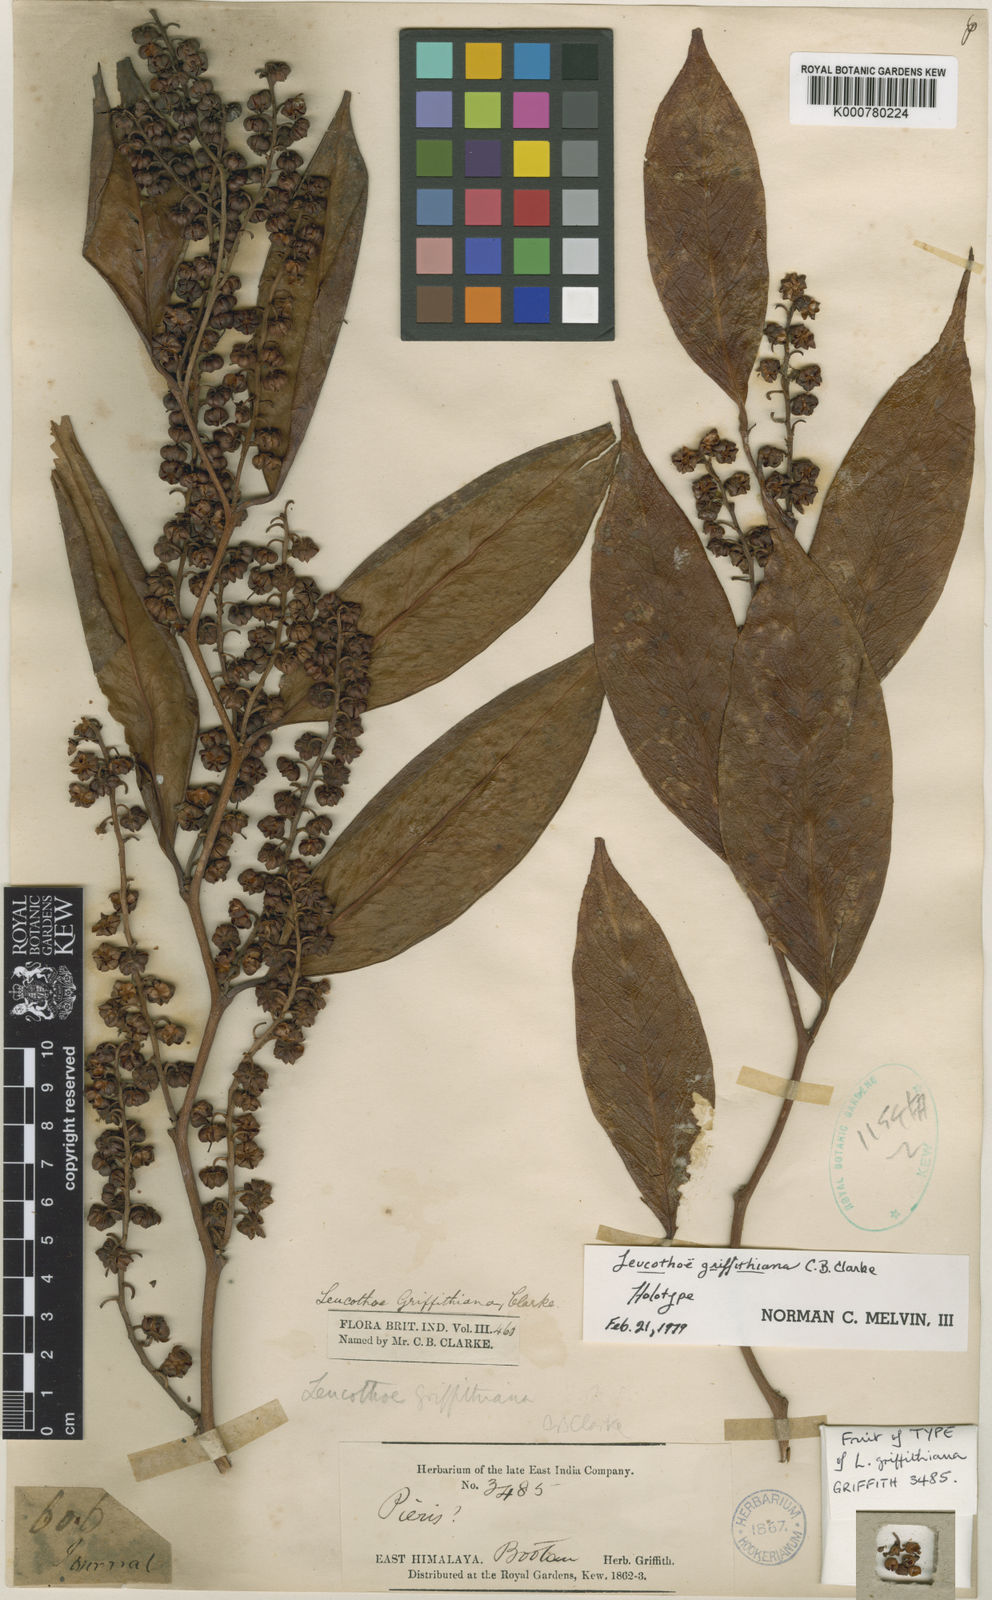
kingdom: Plantae
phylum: Tracheophyta
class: Magnoliopsida
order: Ericales
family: Ericaceae
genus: Leucothoe
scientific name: Leucothoe griffithiana
